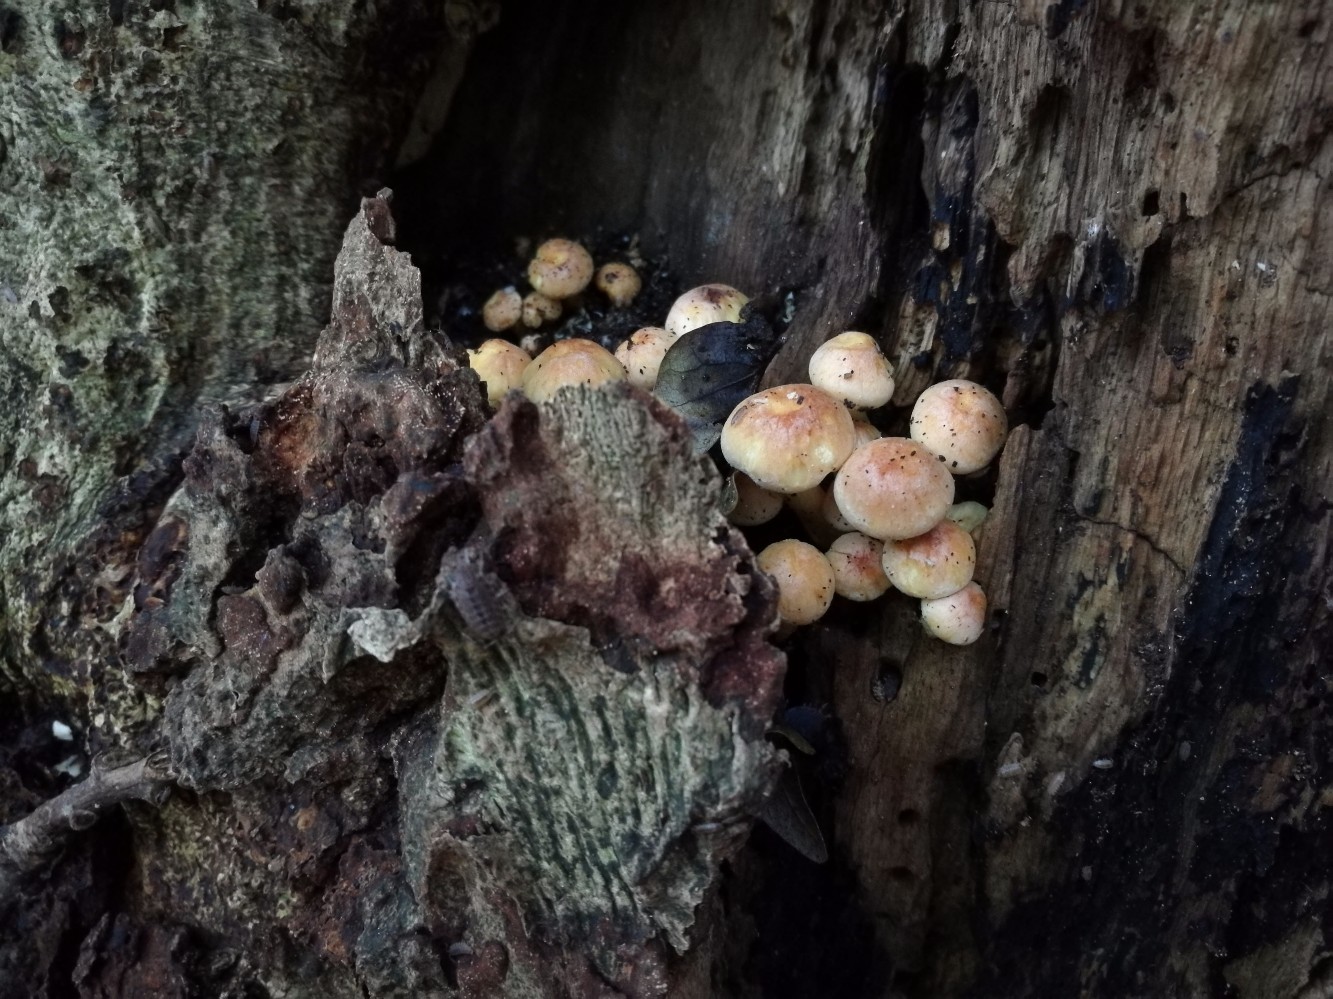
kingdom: Fungi
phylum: Basidiomycota
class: Agaricomycetes
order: Agaricales
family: Strophariaceae
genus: Hypholoma
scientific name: Hypholoma fasciculare
